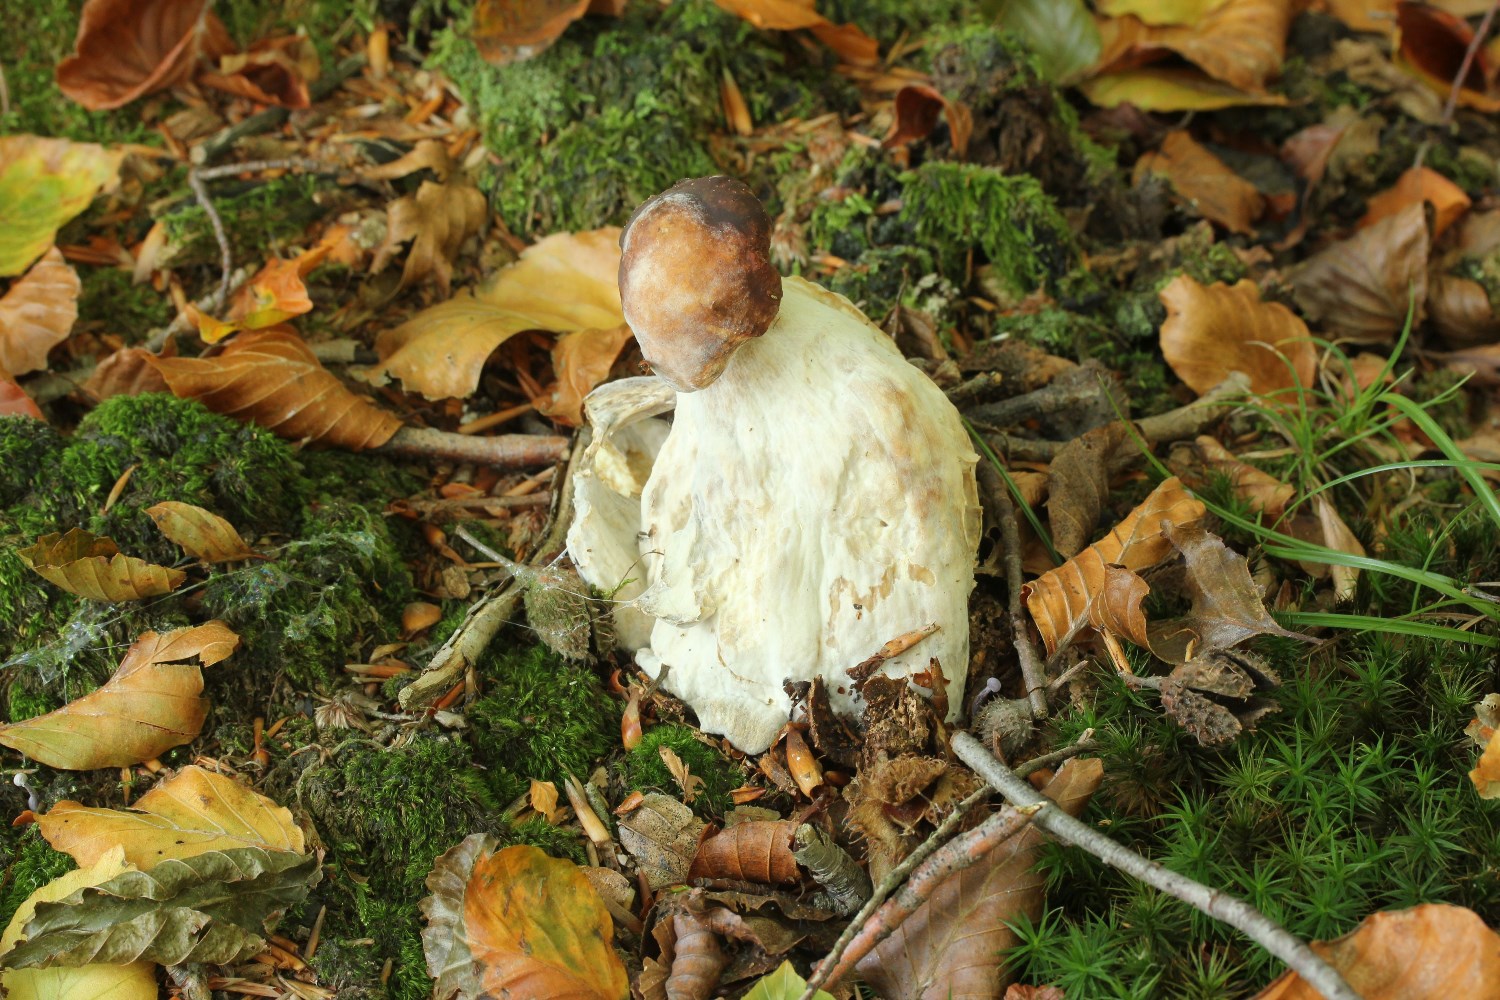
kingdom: Fungi
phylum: Ascomycota
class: Sordariomycetes
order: Hypocreales
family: Hypocreaceae
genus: Hypomyces
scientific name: Hypomyces chrysospermus
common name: gulskimmel-snylteskorpe
